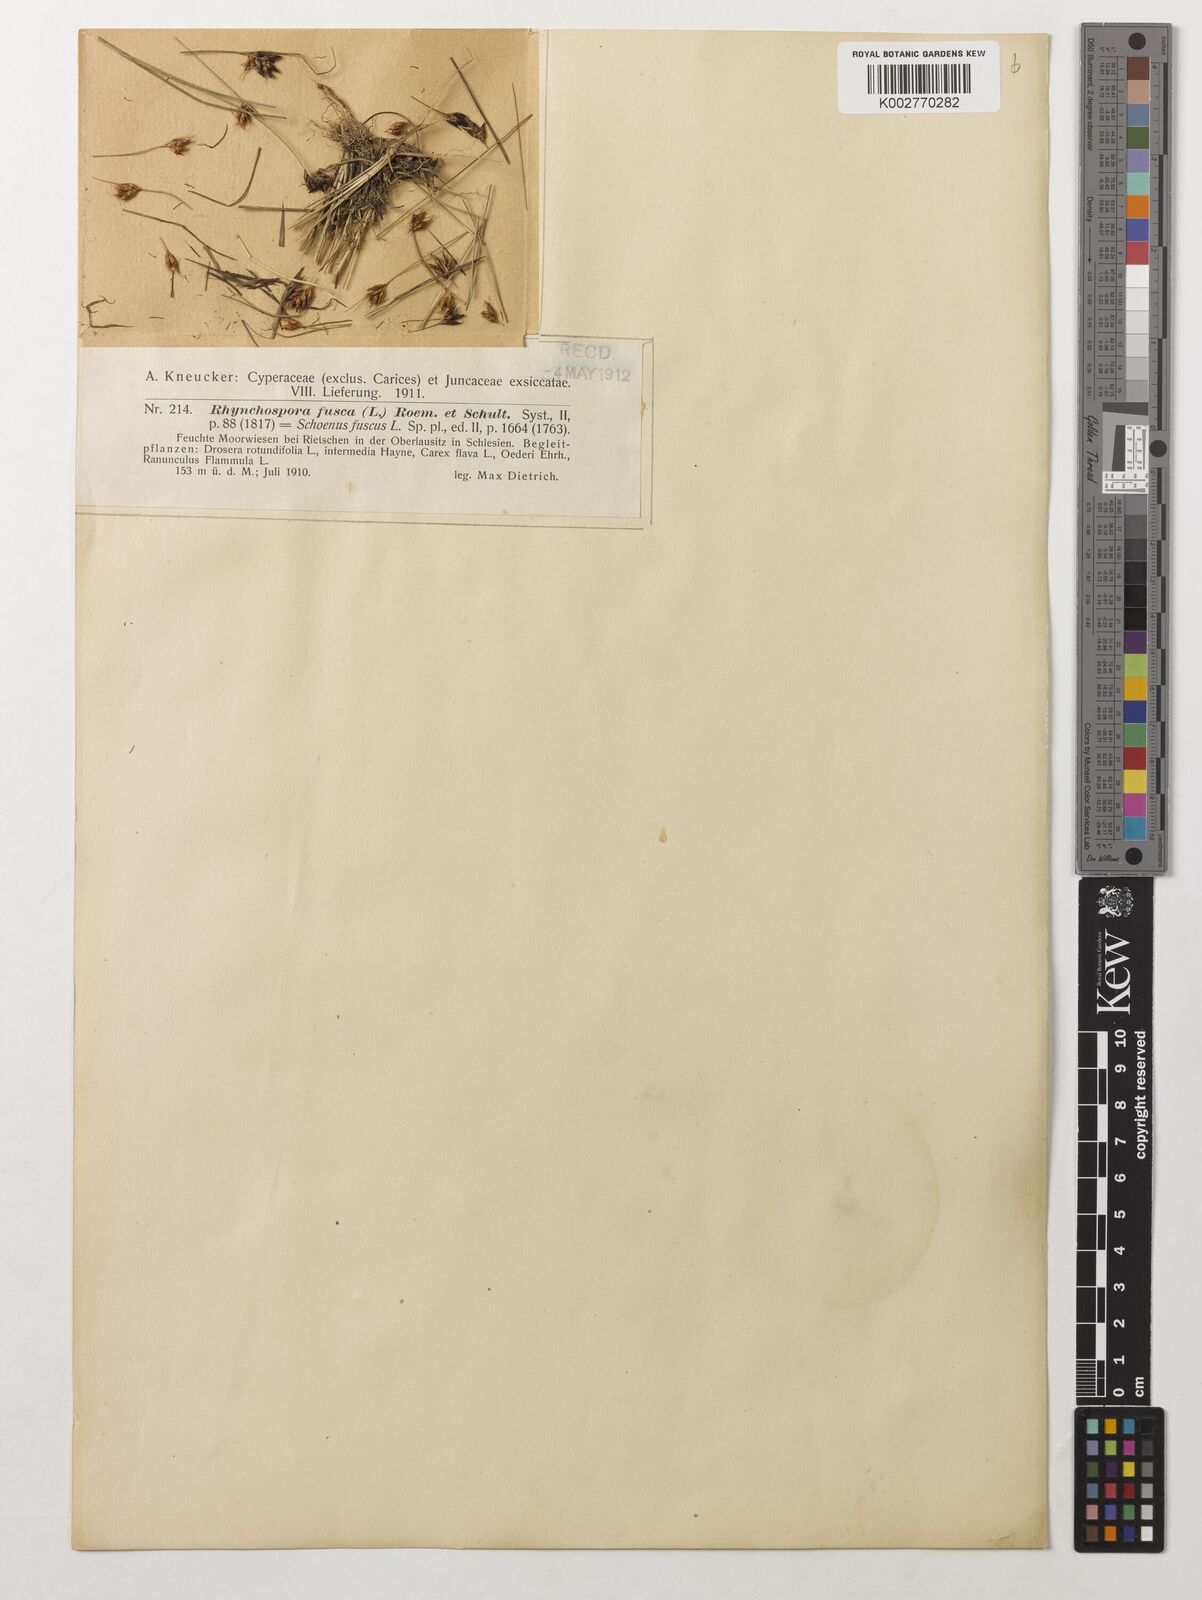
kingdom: Plantae
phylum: Tracheophyta
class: Liliopsida
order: Poales
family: Cyperaceae
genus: Rhynchospora
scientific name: Rhynchospora fusca
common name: Brown beak-sedge
